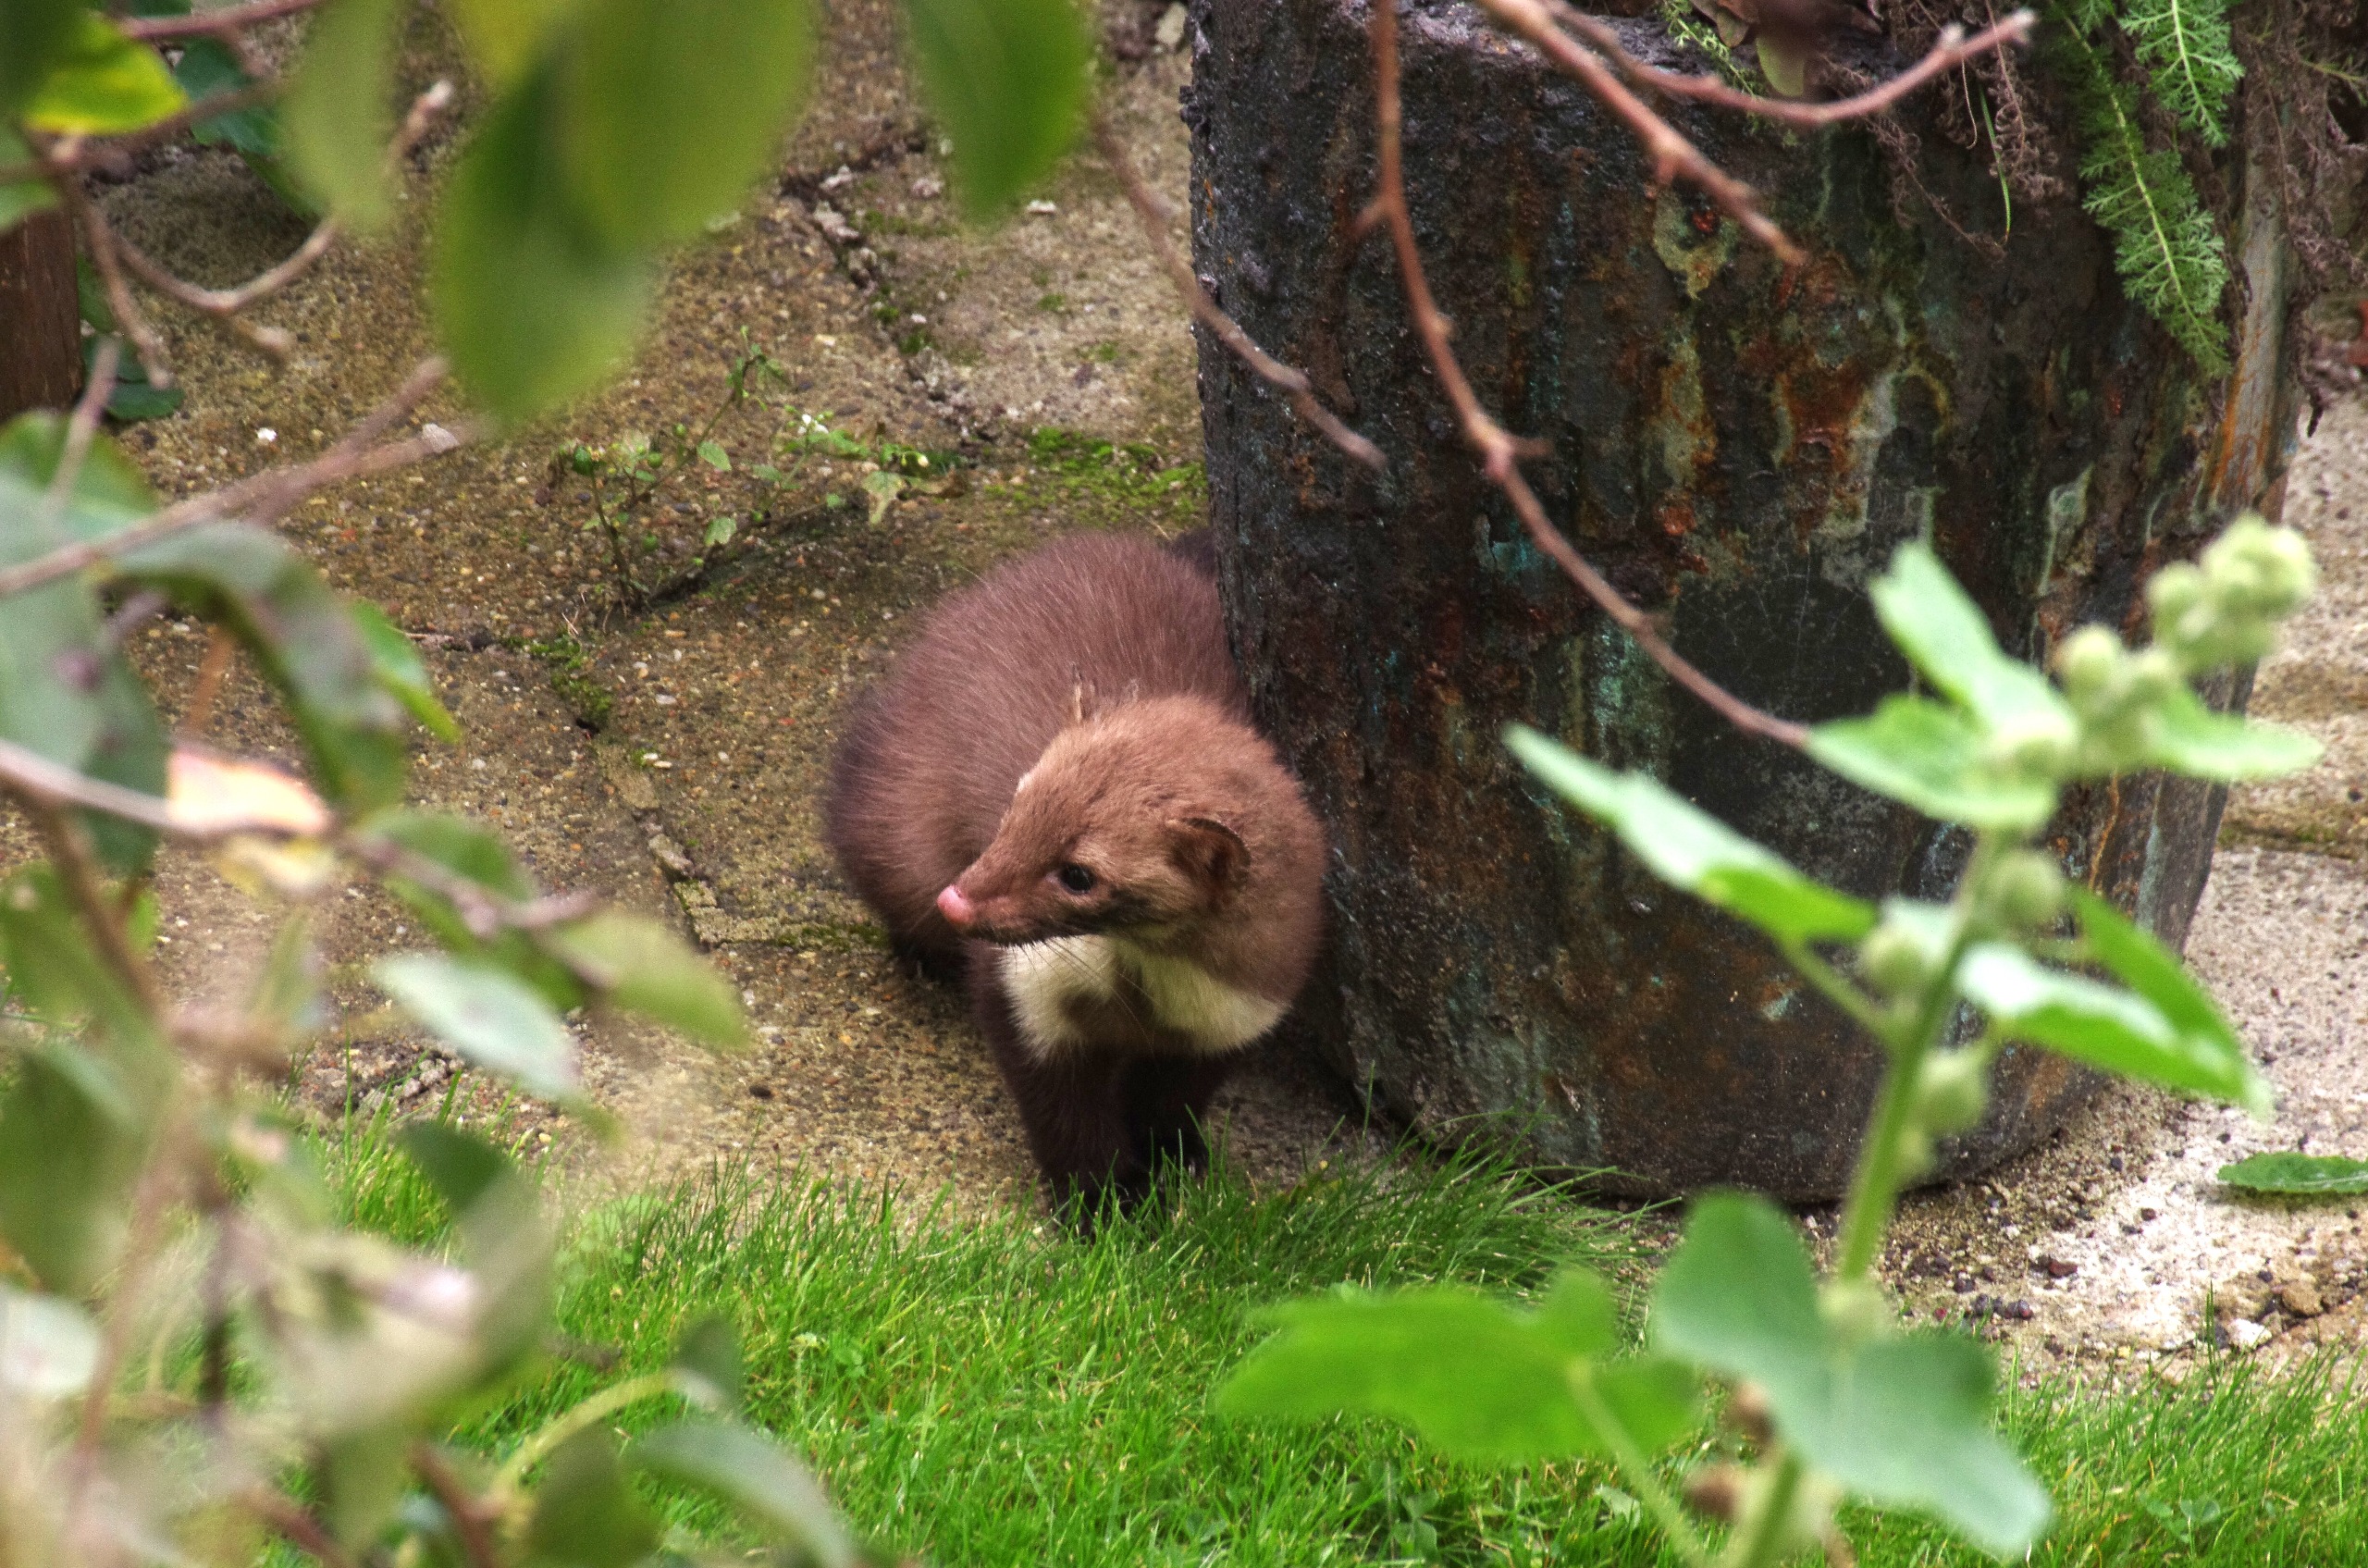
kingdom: Animalia
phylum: Chordata
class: Mammalia
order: Carnivora
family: Mustelidae
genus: Martes
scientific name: Martes foina
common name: Husmår
